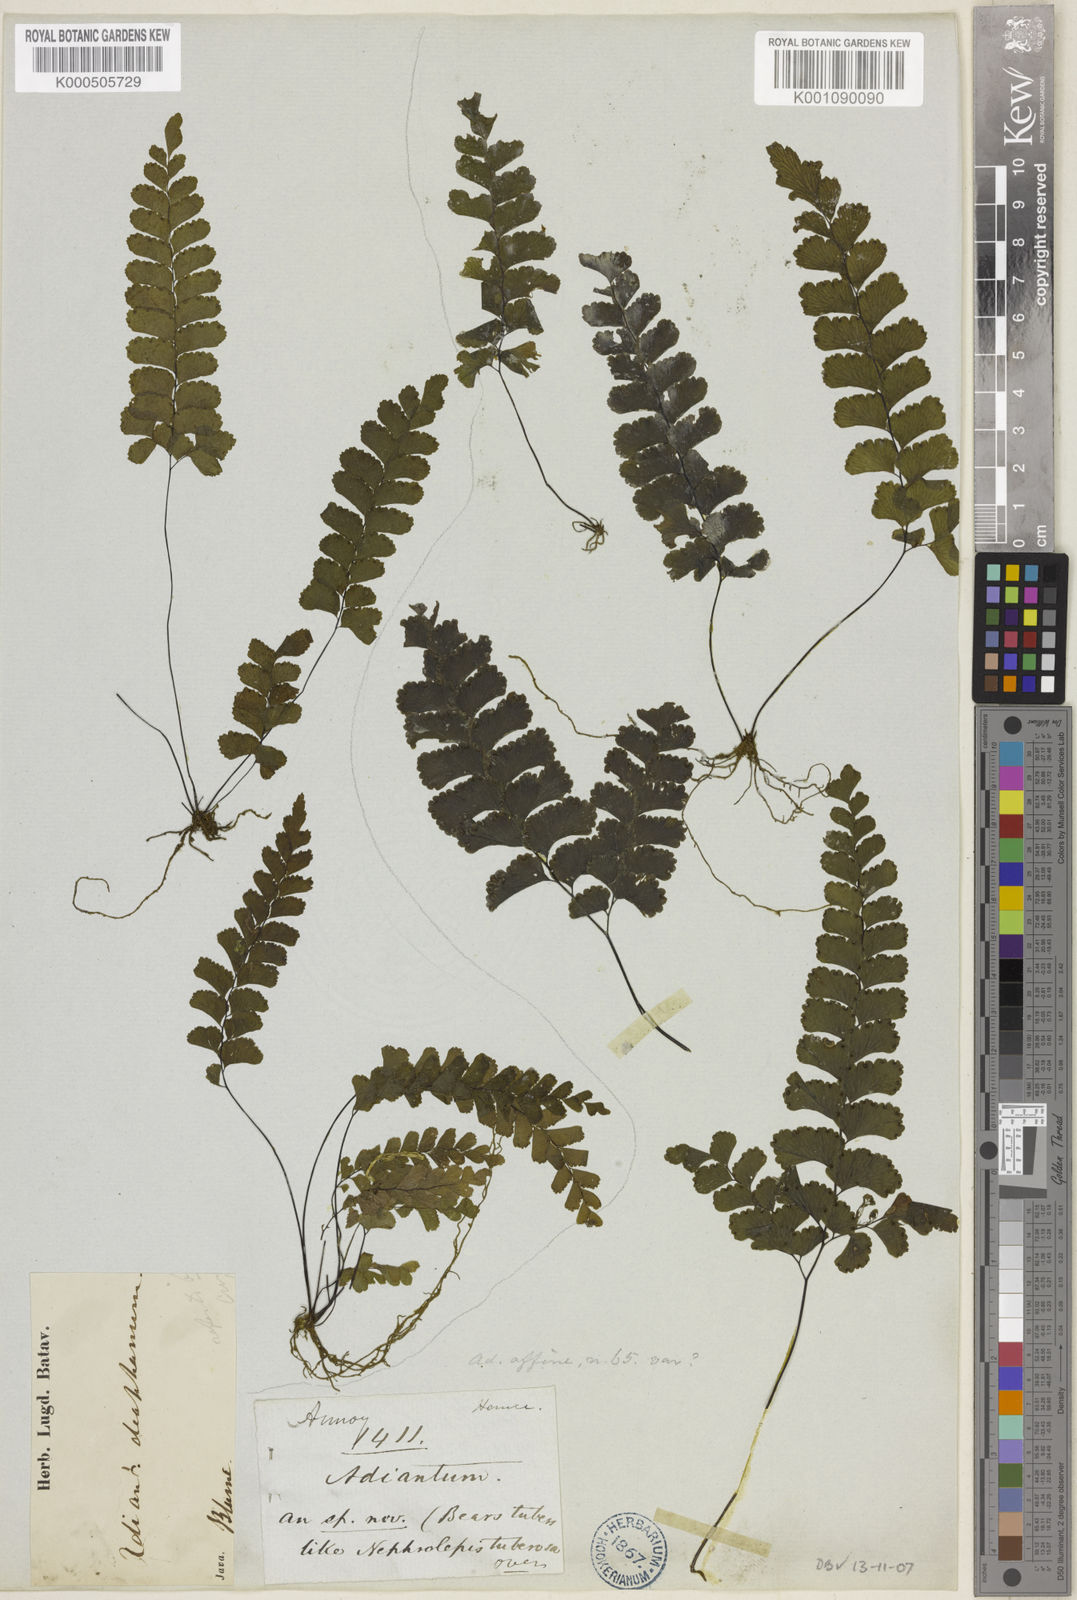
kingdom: Plantae
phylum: Tracheophyta
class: Polypodiopsida
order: Polypodiales
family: Pteridaceae
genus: Adiantum
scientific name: Adiantum diaphanum
